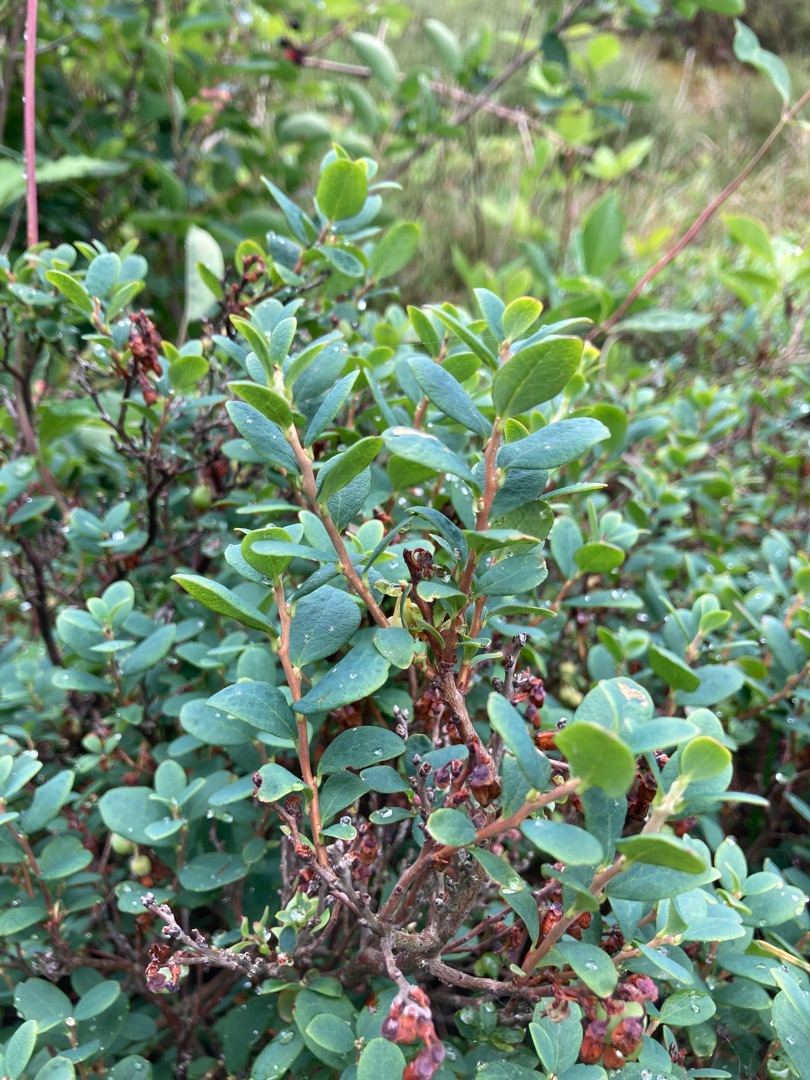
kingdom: Plantae
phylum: Tracheophyta
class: Magnoliopsida
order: Ericales
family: Ericaceae
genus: Vaccinium
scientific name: Vaccinium uliginosum
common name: Mose-bølle
